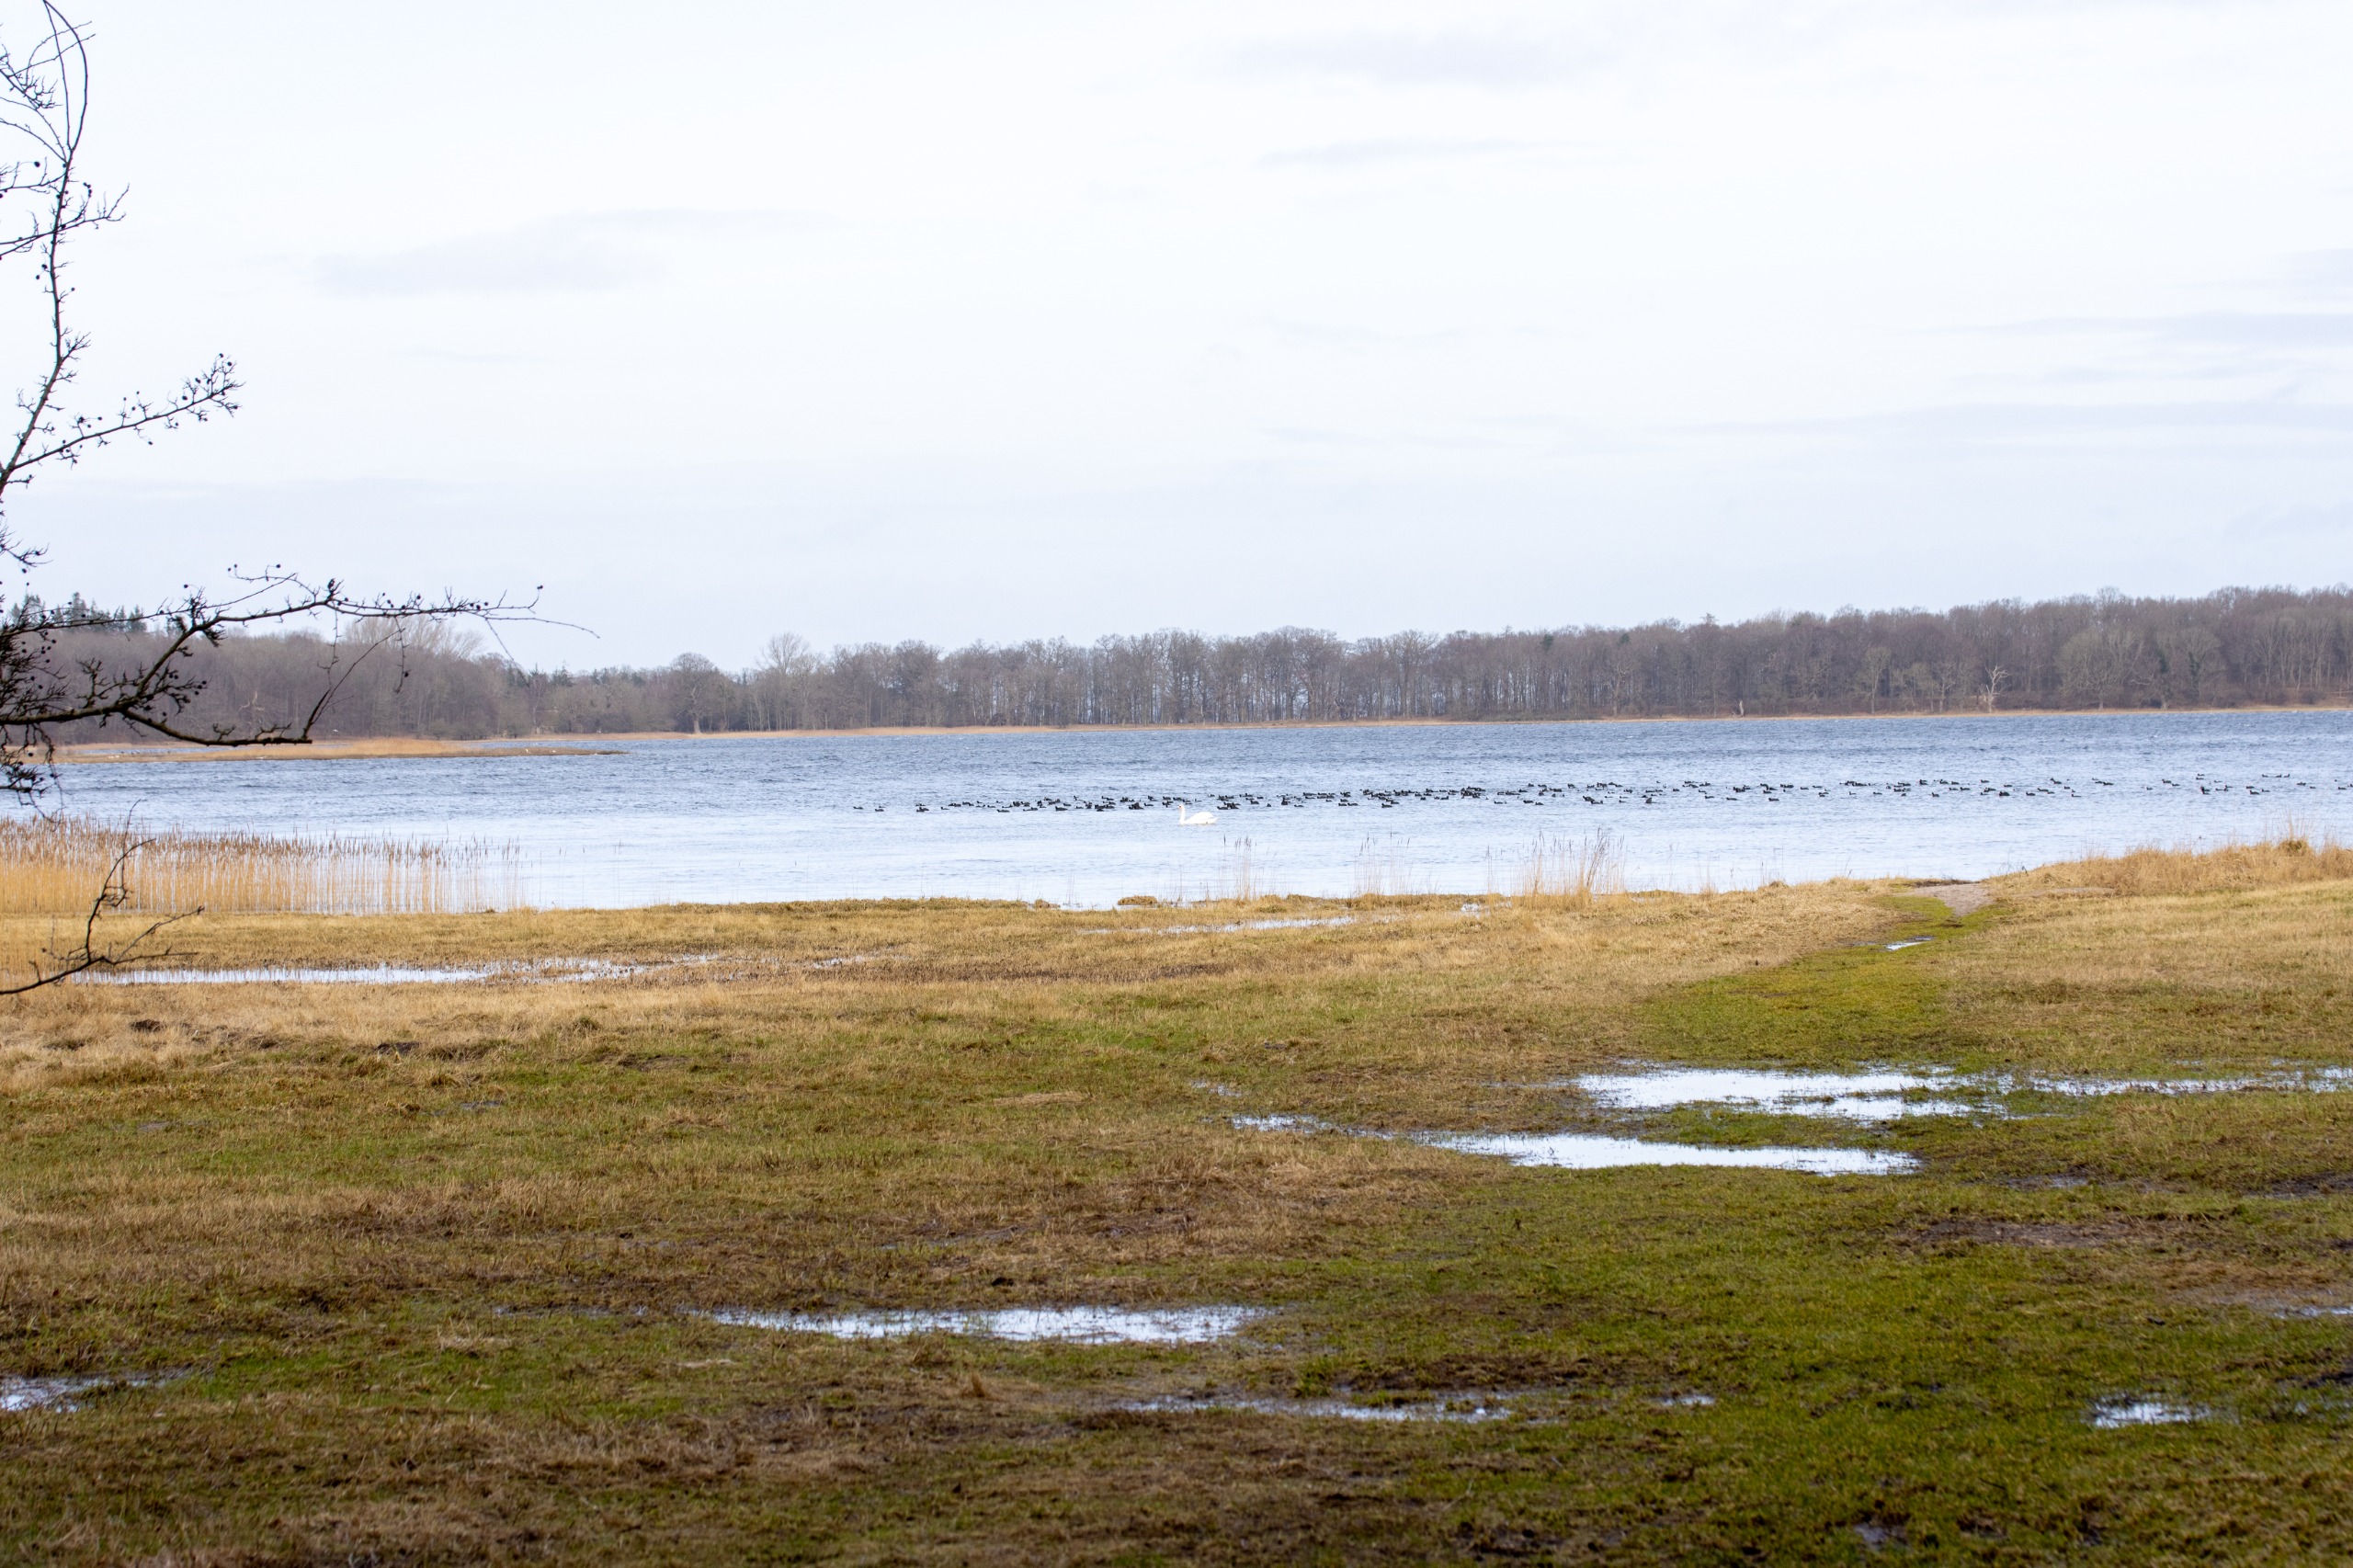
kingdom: Animalia
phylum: Chordata
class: Aves
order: Gruiformes
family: Rallidae
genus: Fulica
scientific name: Fulica atra
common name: Blishøne
